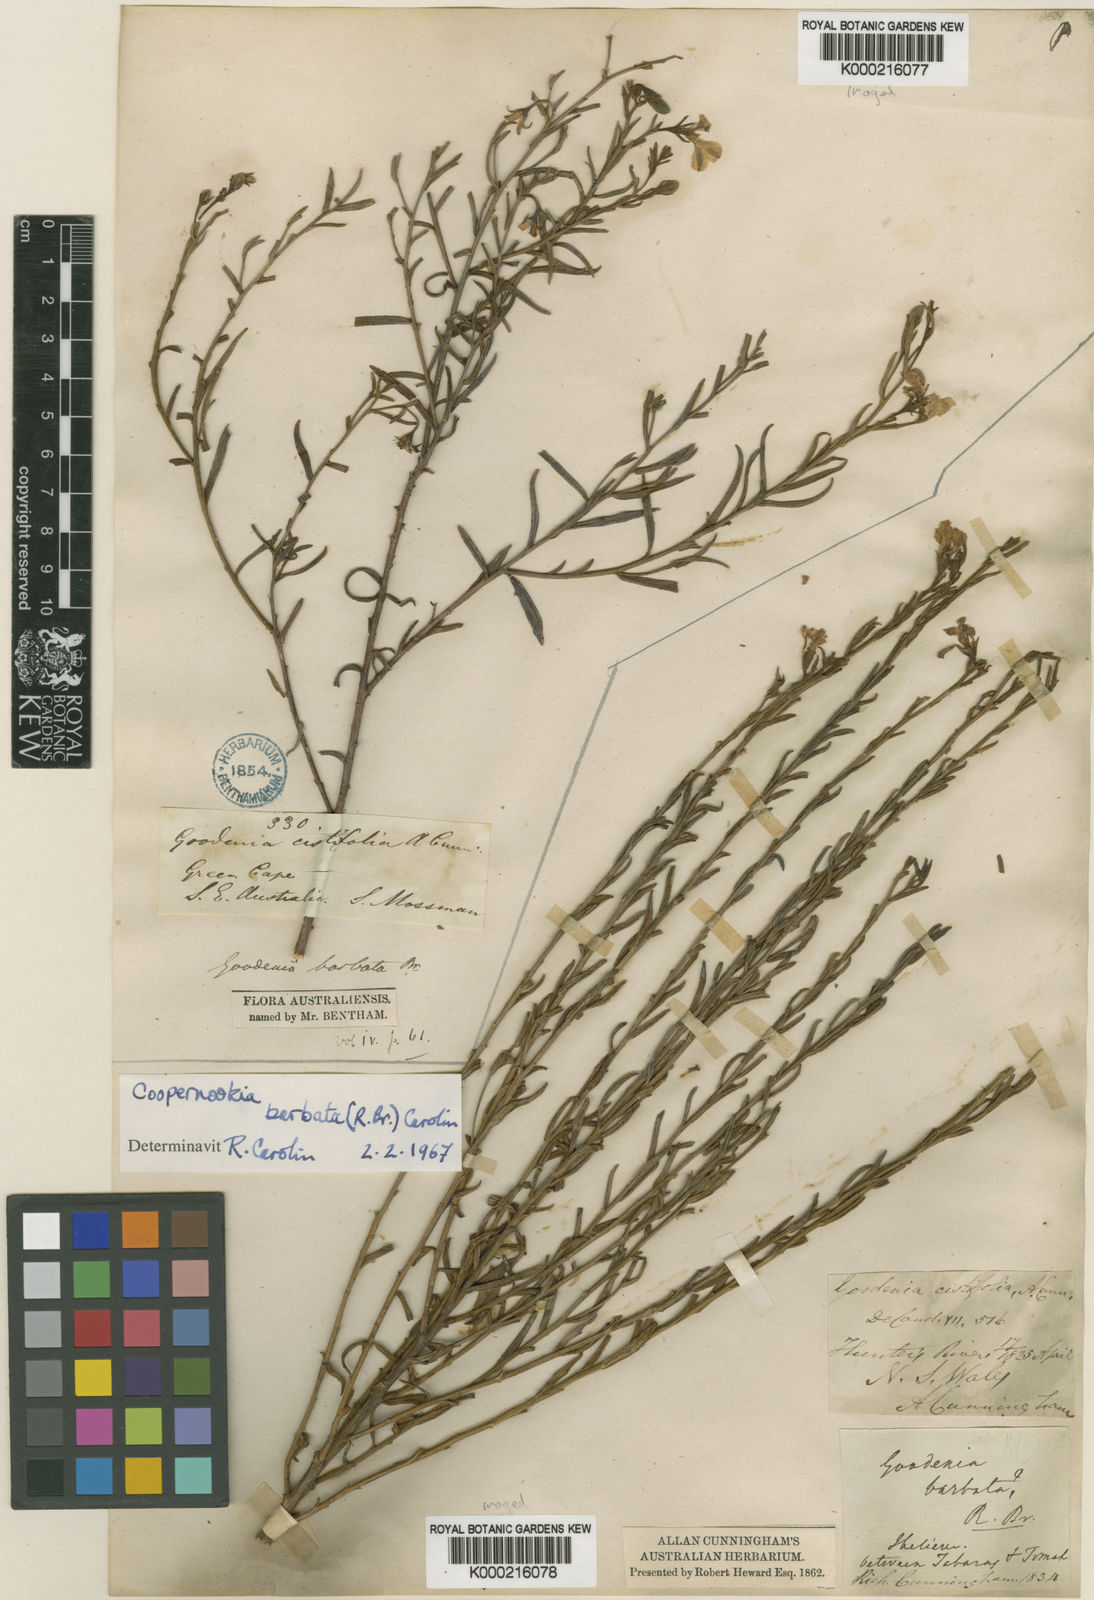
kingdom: Plantae
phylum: Tracheophyta
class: Magnoliopsida
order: Asterales
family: Goodeniaceae
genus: Goodenia
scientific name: Goodenia barbata
